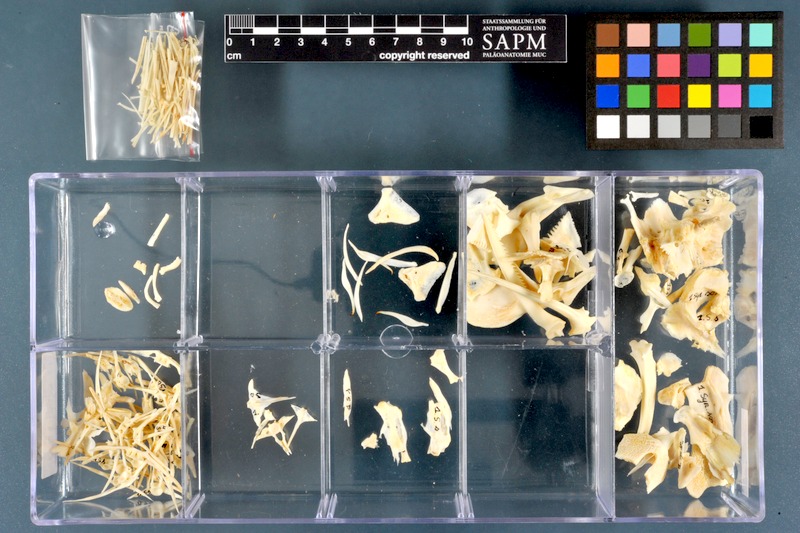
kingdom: Animalia
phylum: Chordata
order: Siluriformes
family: Mochokidae
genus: Synodontis
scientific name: Synodontis sorex
